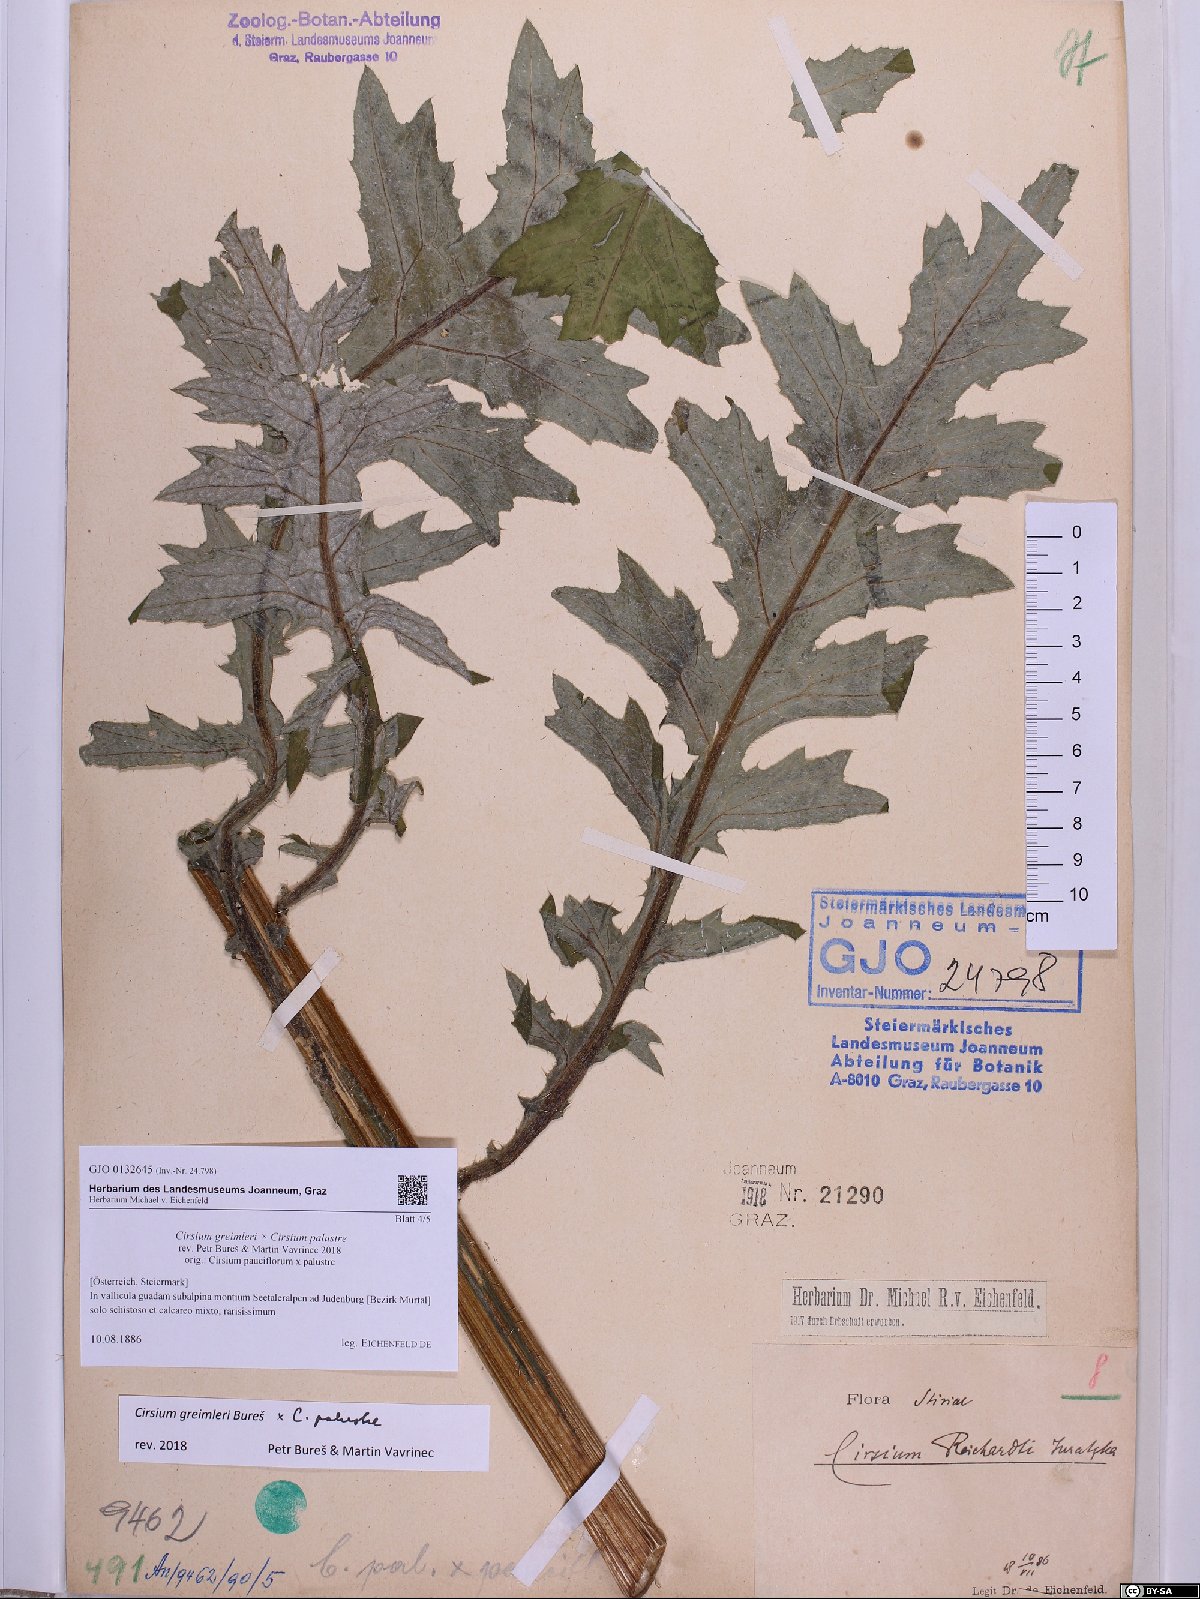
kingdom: Plantae
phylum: Tracheophyta
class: Magnoliopsida
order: Asterales
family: Asteraceae
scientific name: Asteraceae
